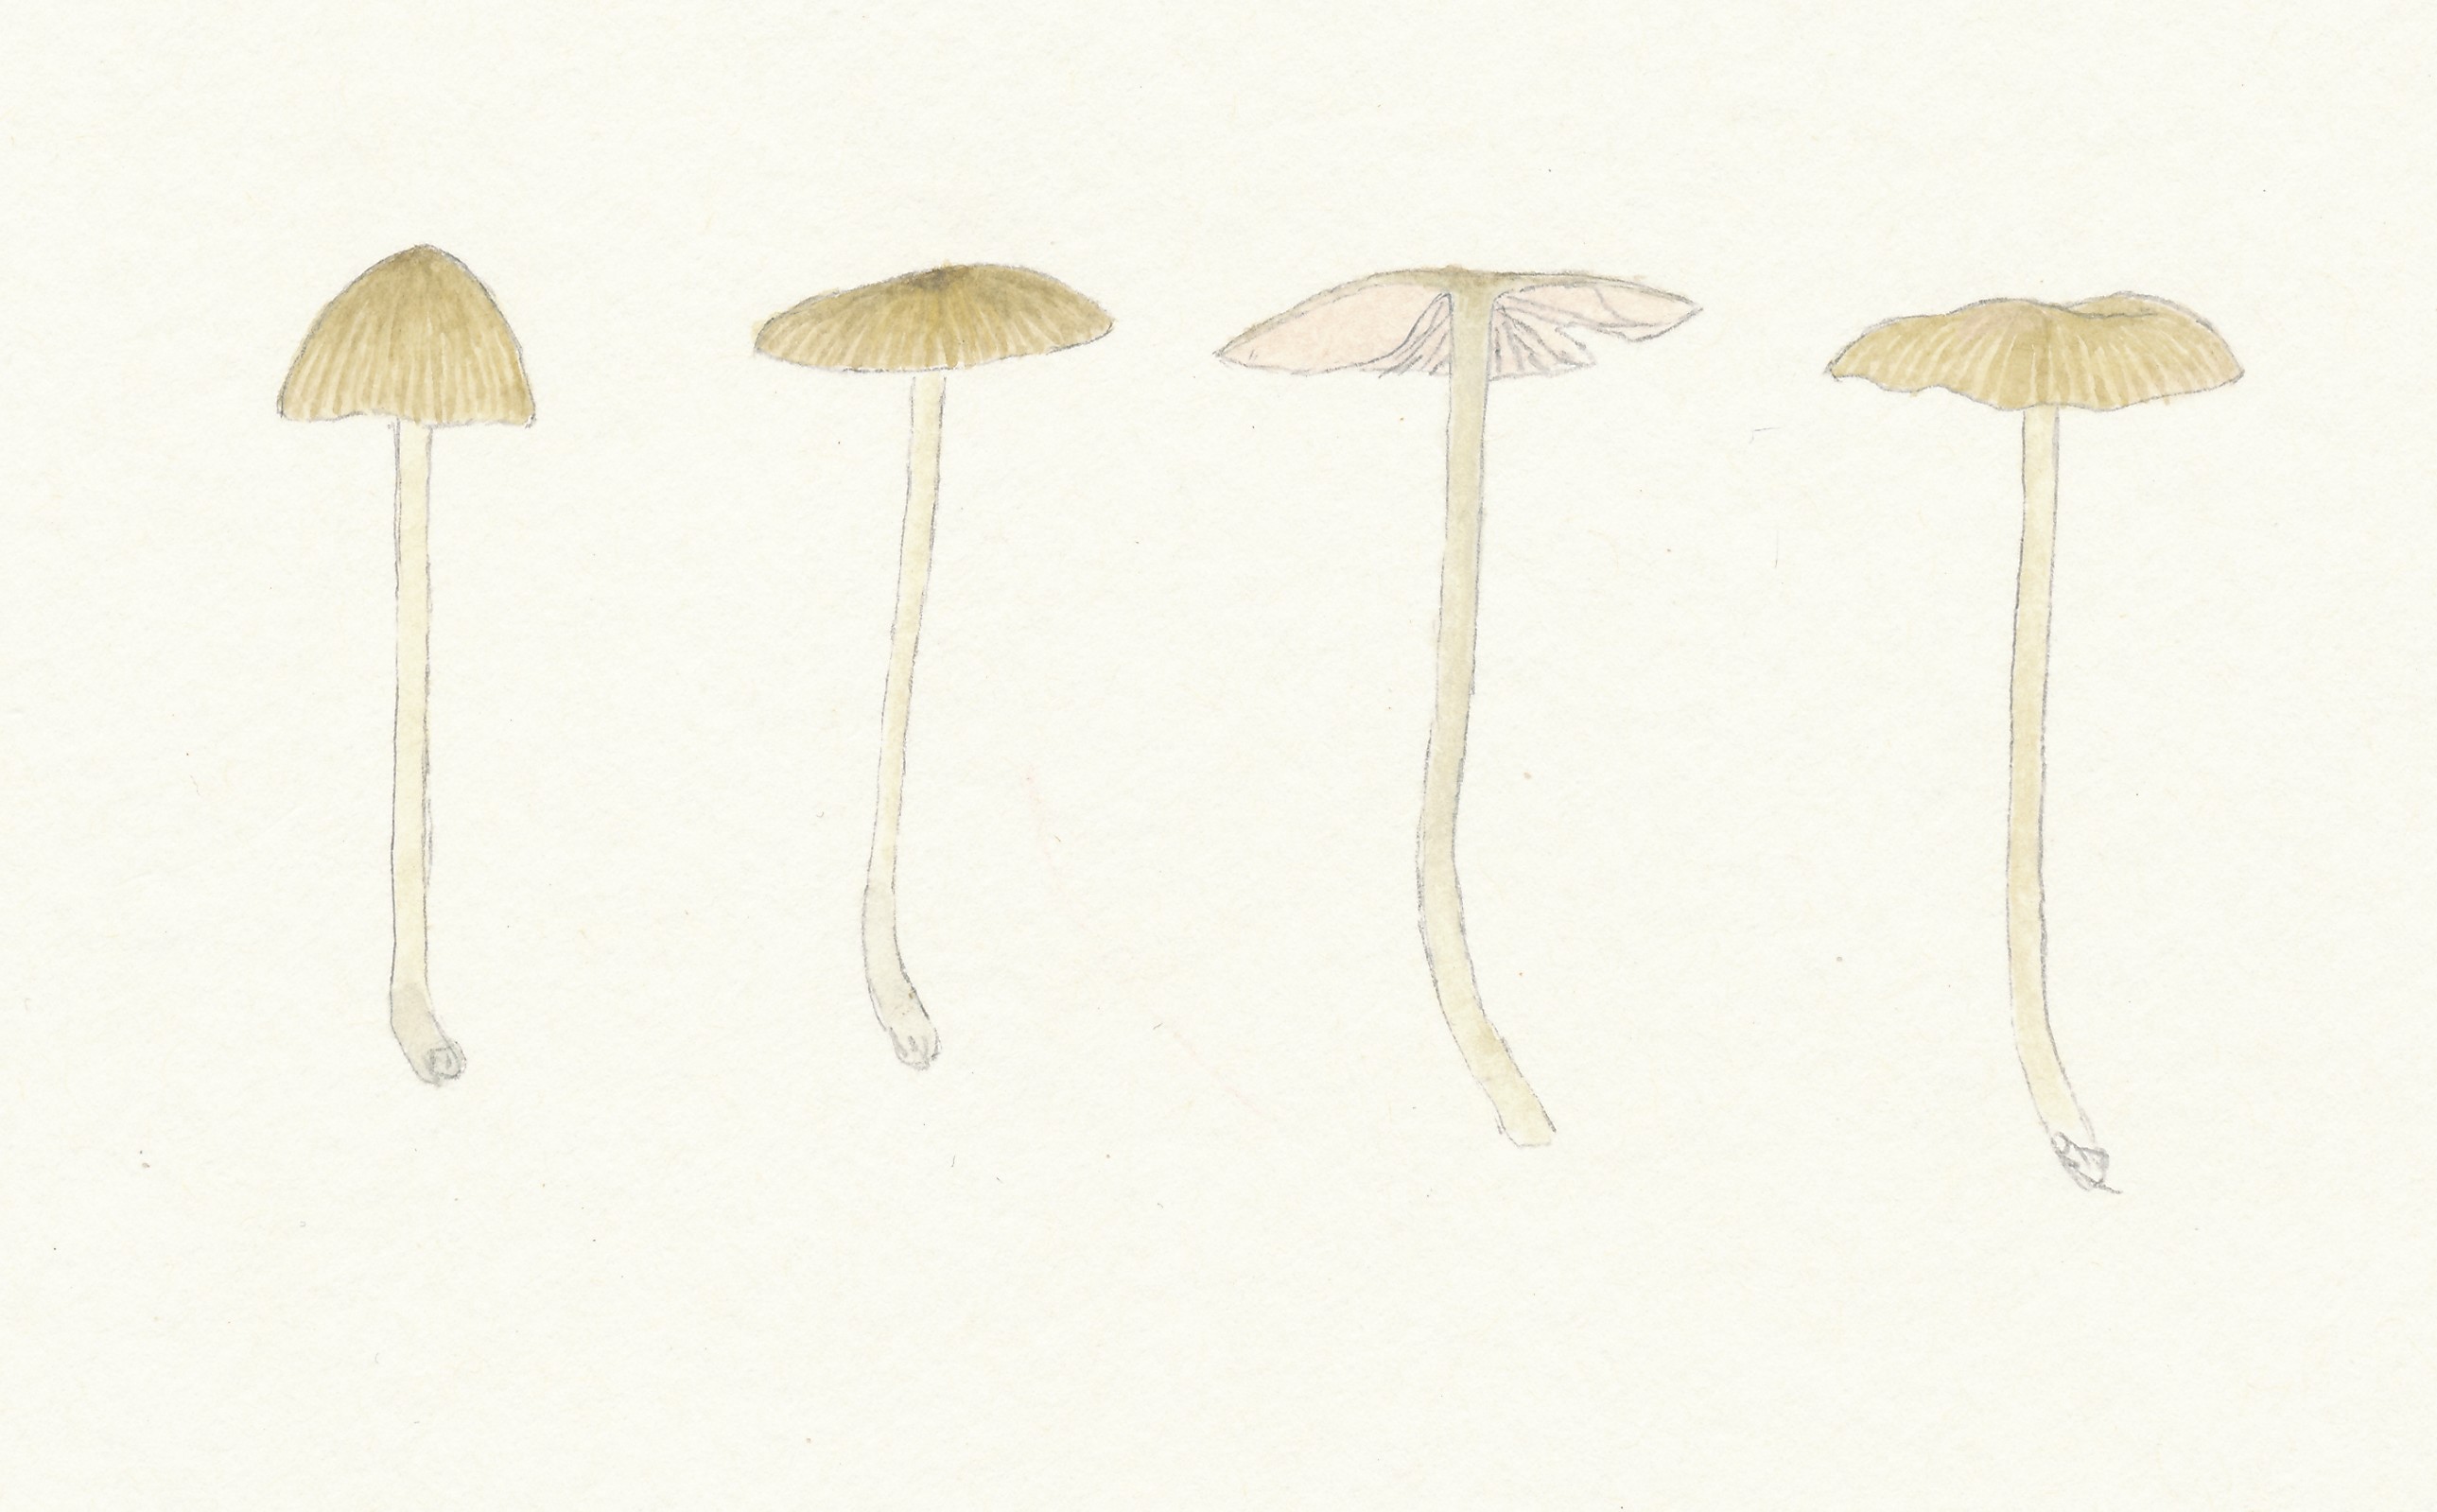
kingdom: Fungi
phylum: Basidiomycota
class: Agaricomycetes
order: Agaricales
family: Entolomataceae
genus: Entoloma
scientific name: Entoloma minutum
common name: liden rødblad
